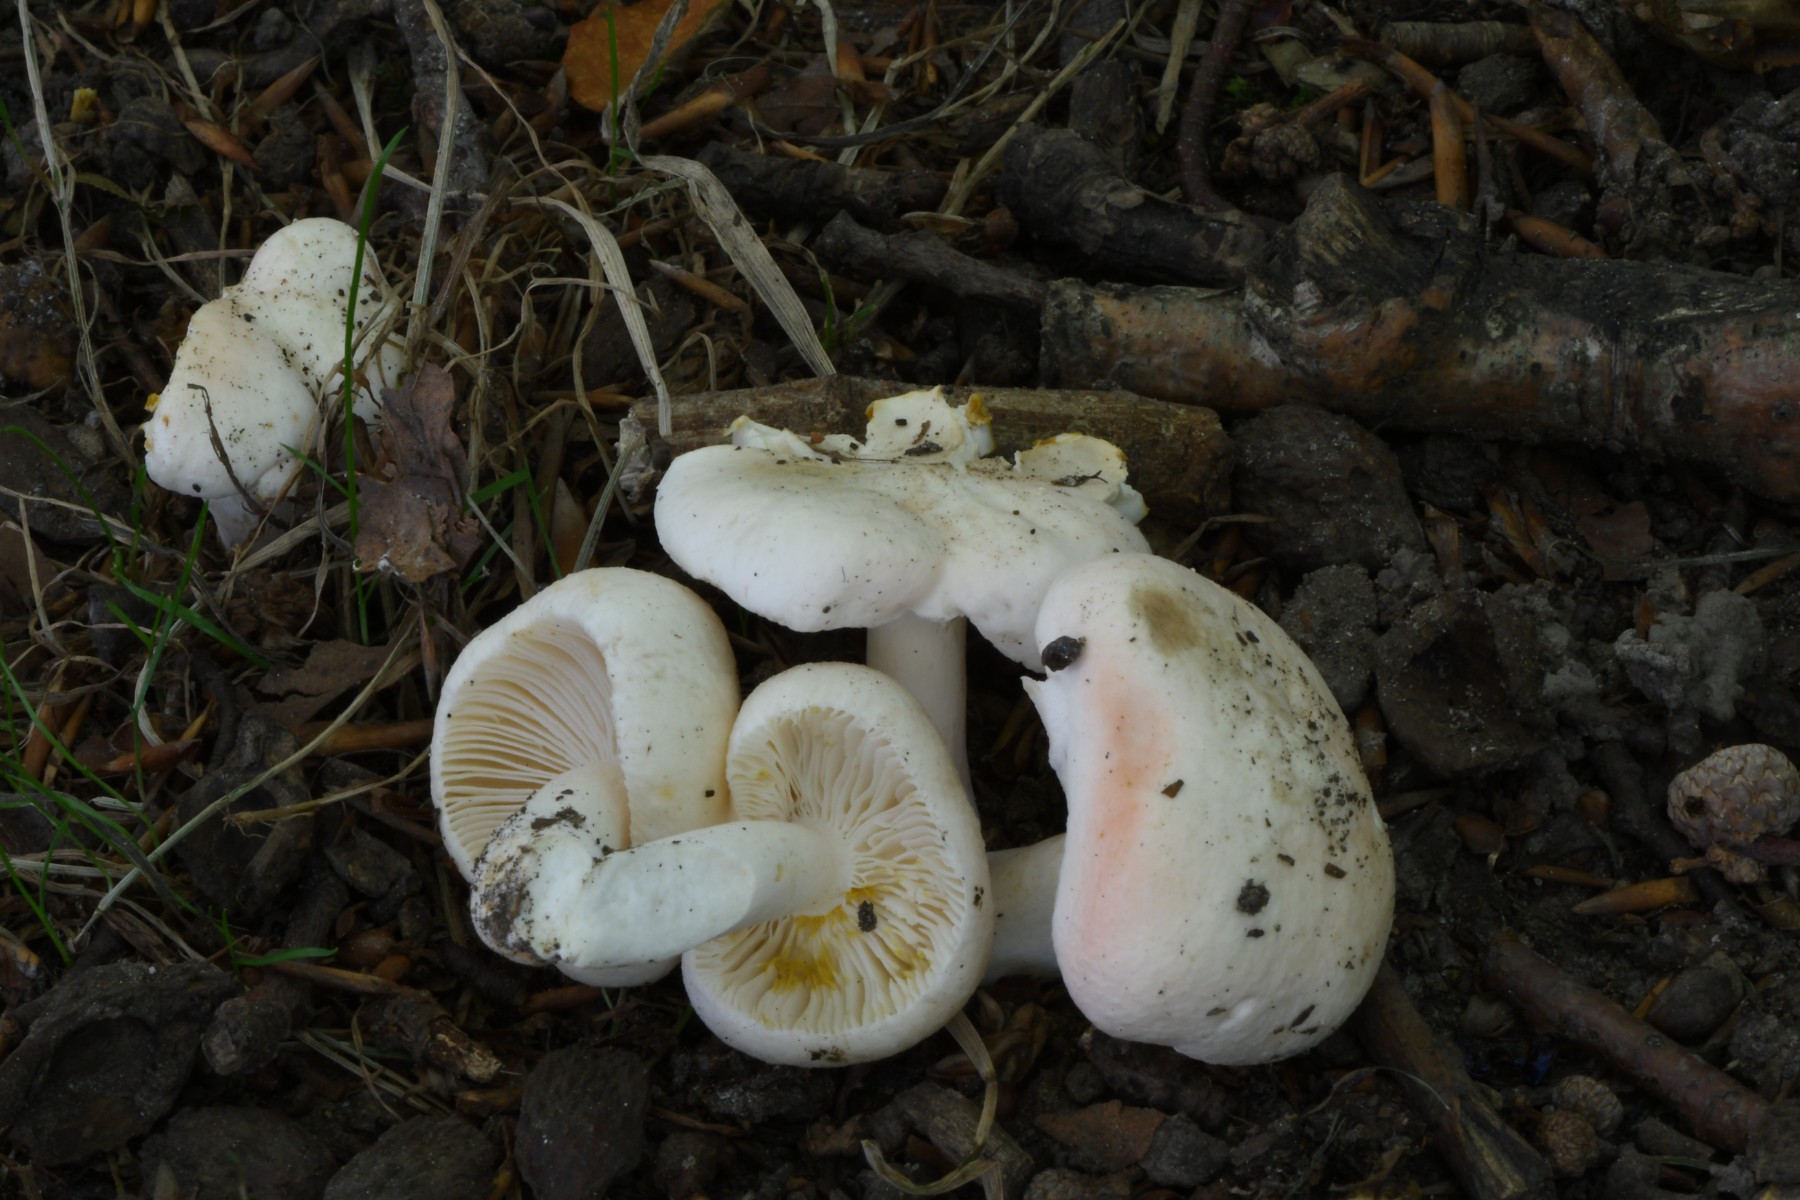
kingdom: Fungi
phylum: Basidiomycota
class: Agaricomycetes
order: Russulales
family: Russulaceae
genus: Russula
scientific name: Russula luteotacta
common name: gulplettet gift-skørhat
